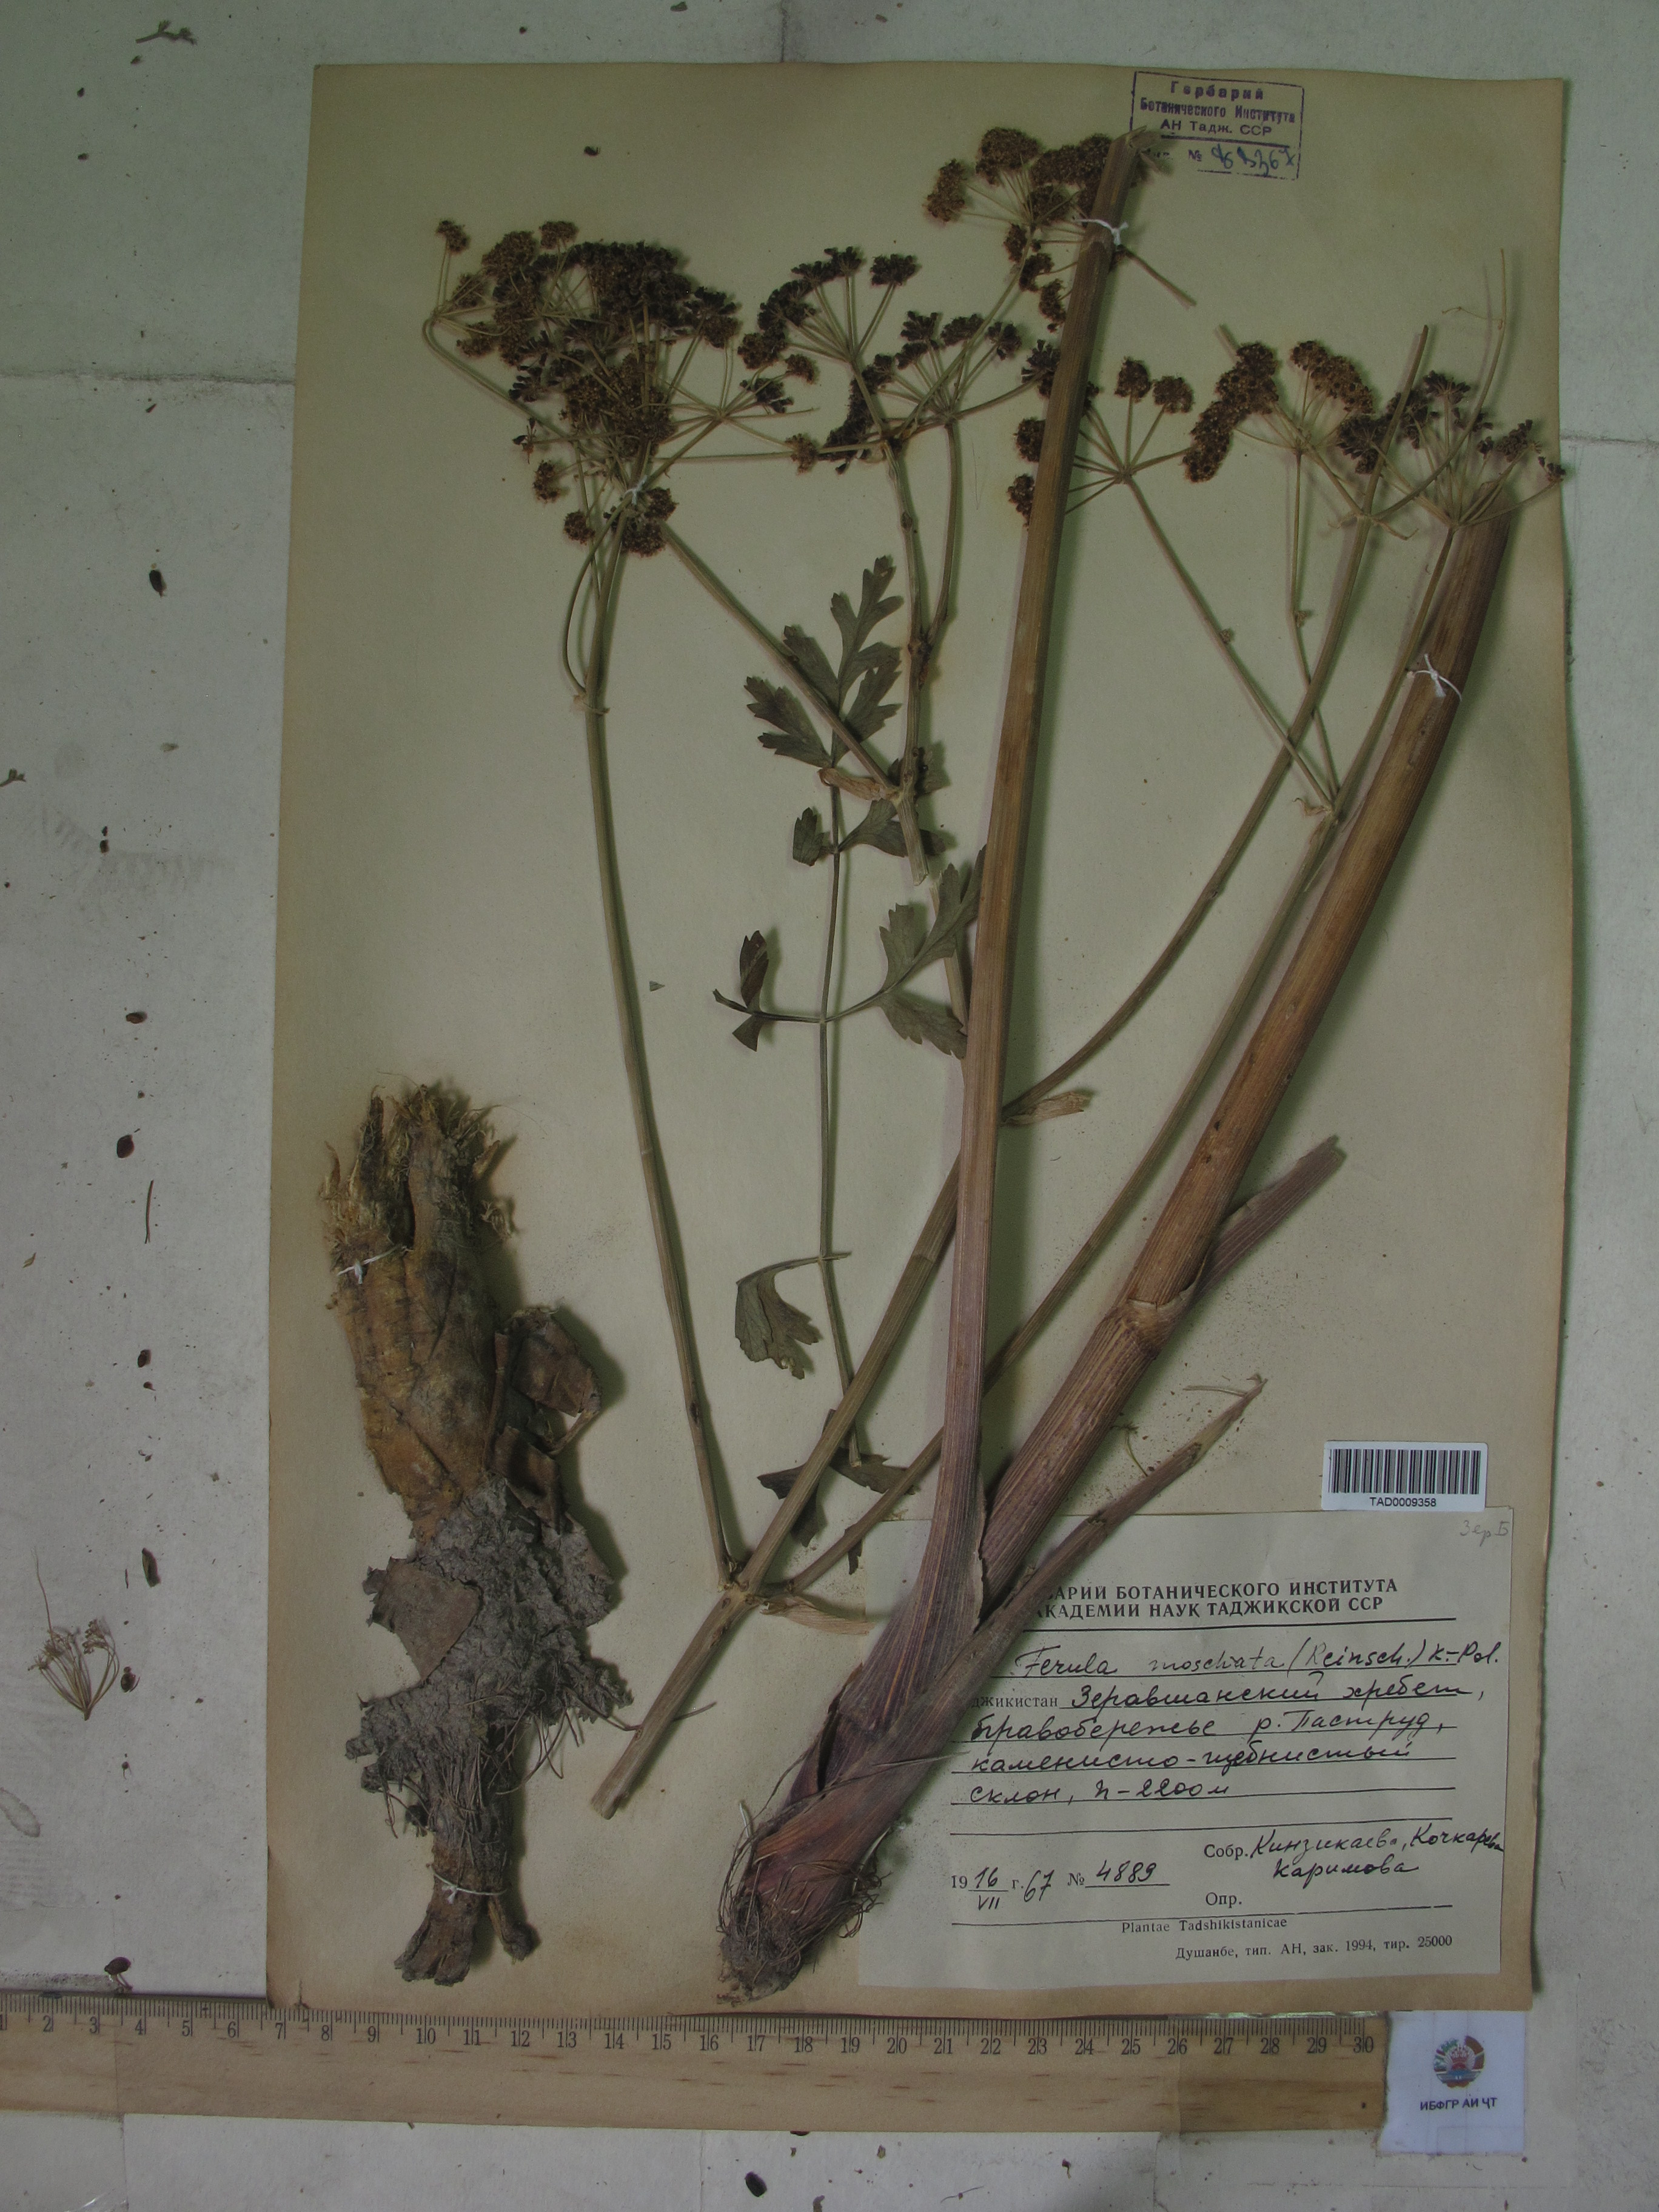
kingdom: Plantae
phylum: Tracheophyta
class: Magnoliopsida
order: Apiales
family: Apiaceae
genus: Ferula
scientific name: Ferula moschata
